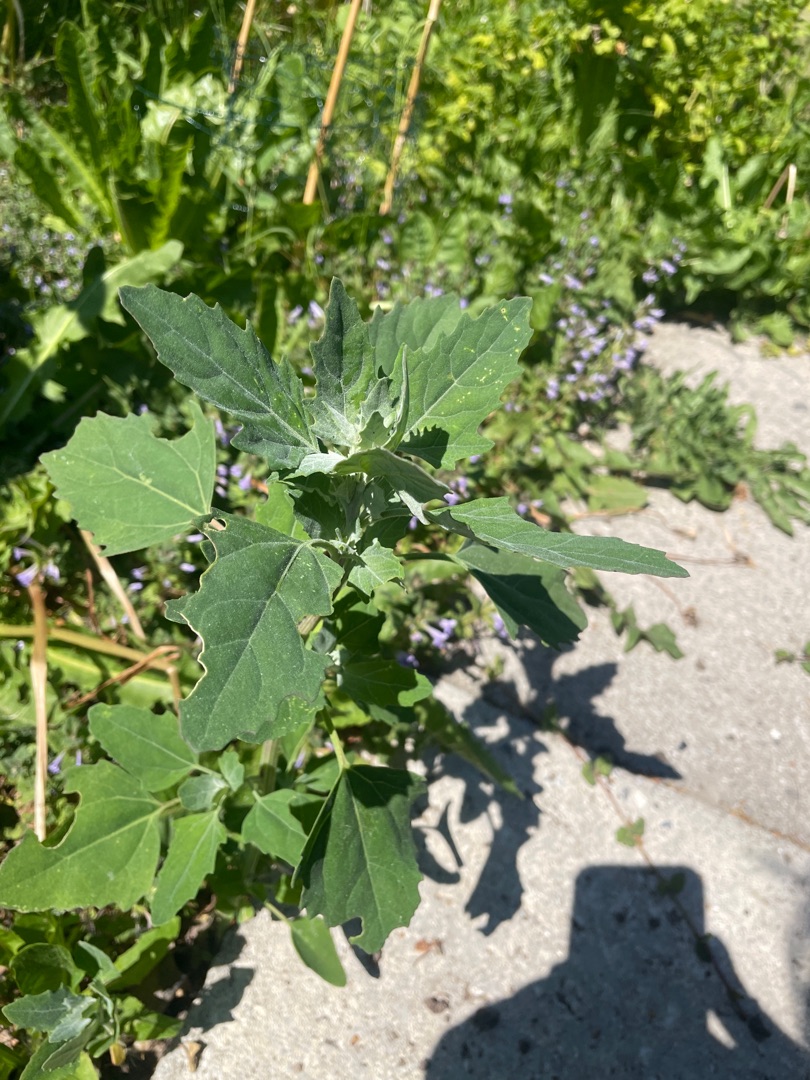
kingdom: Plantae
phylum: Tracheophyta
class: Magnoliopsida
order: Caryophyllales
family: Amaranthaceae
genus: Chenopodium
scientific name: Chenopodium album
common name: Hvidmelet gåsefod
